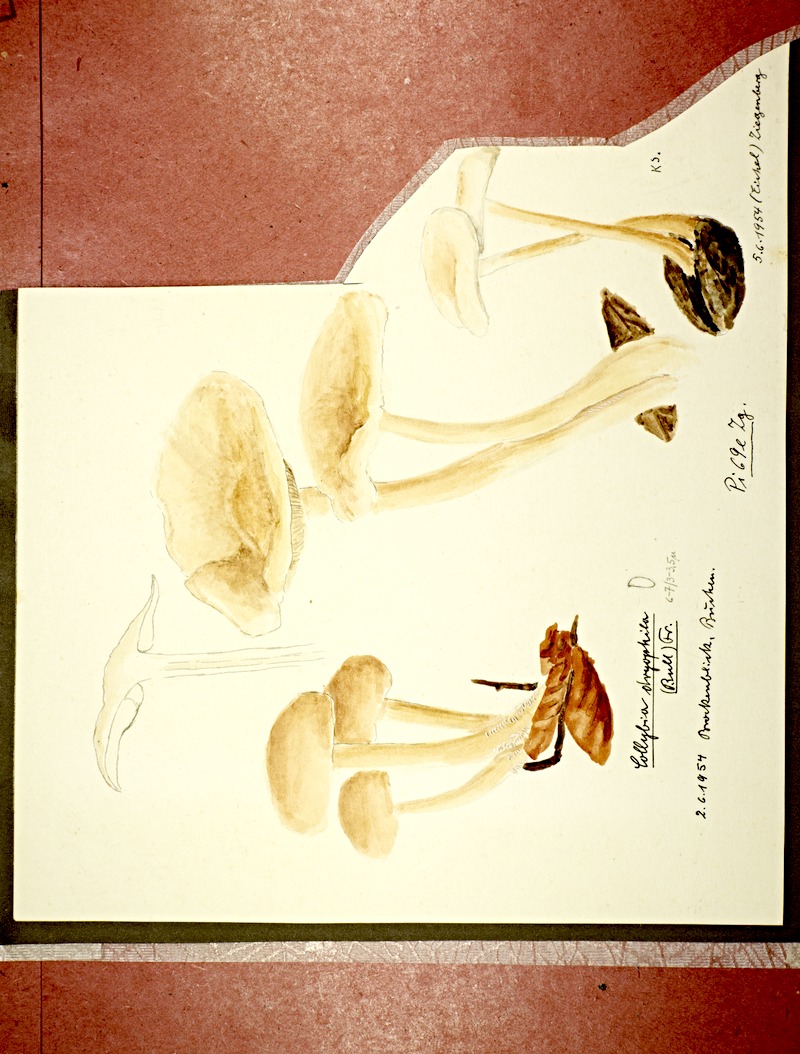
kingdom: Fungi
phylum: Basidiomycota
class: Agaricomycetes
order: Agaricales
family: Omphalotaceae
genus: Gymnopus
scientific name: Gymnopus dryophilus
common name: Penny top
